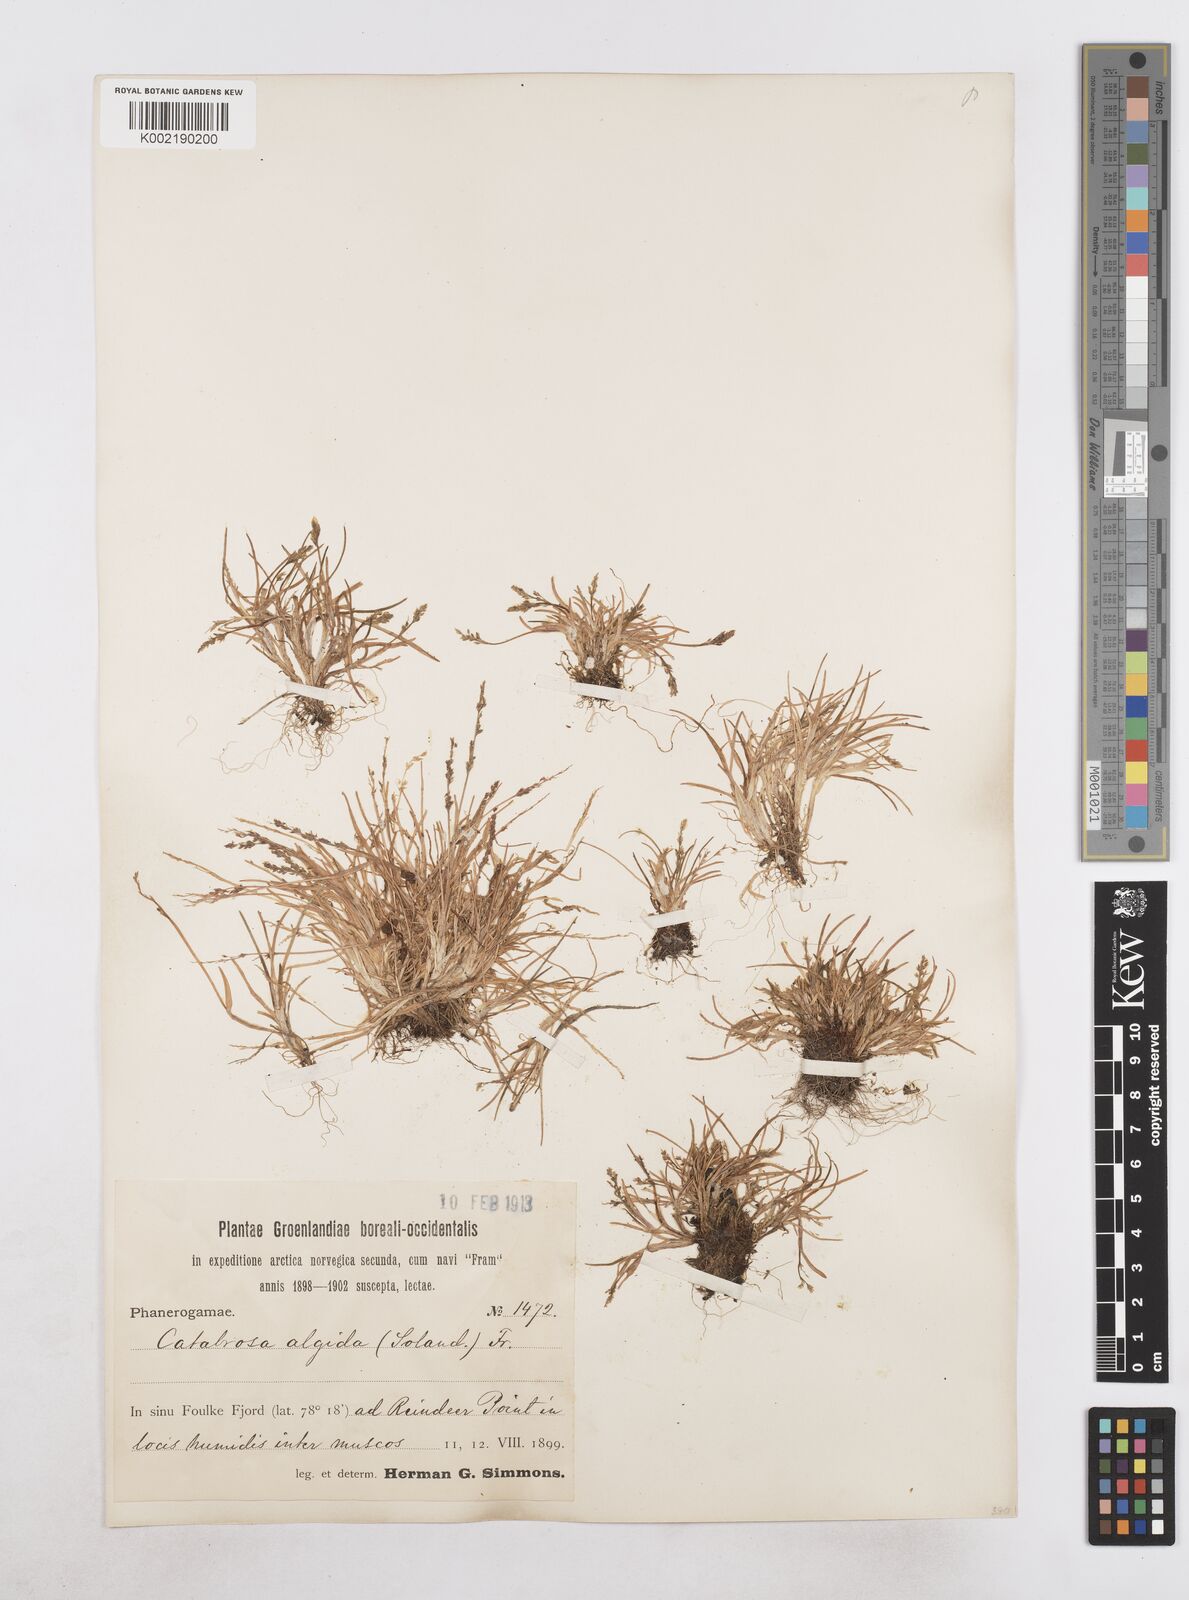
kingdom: Plantae
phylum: Tracheophyta
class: Liliopsida
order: Poales
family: Poaceae
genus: Phippsia
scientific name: Phippsia algida
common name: Ice grass
